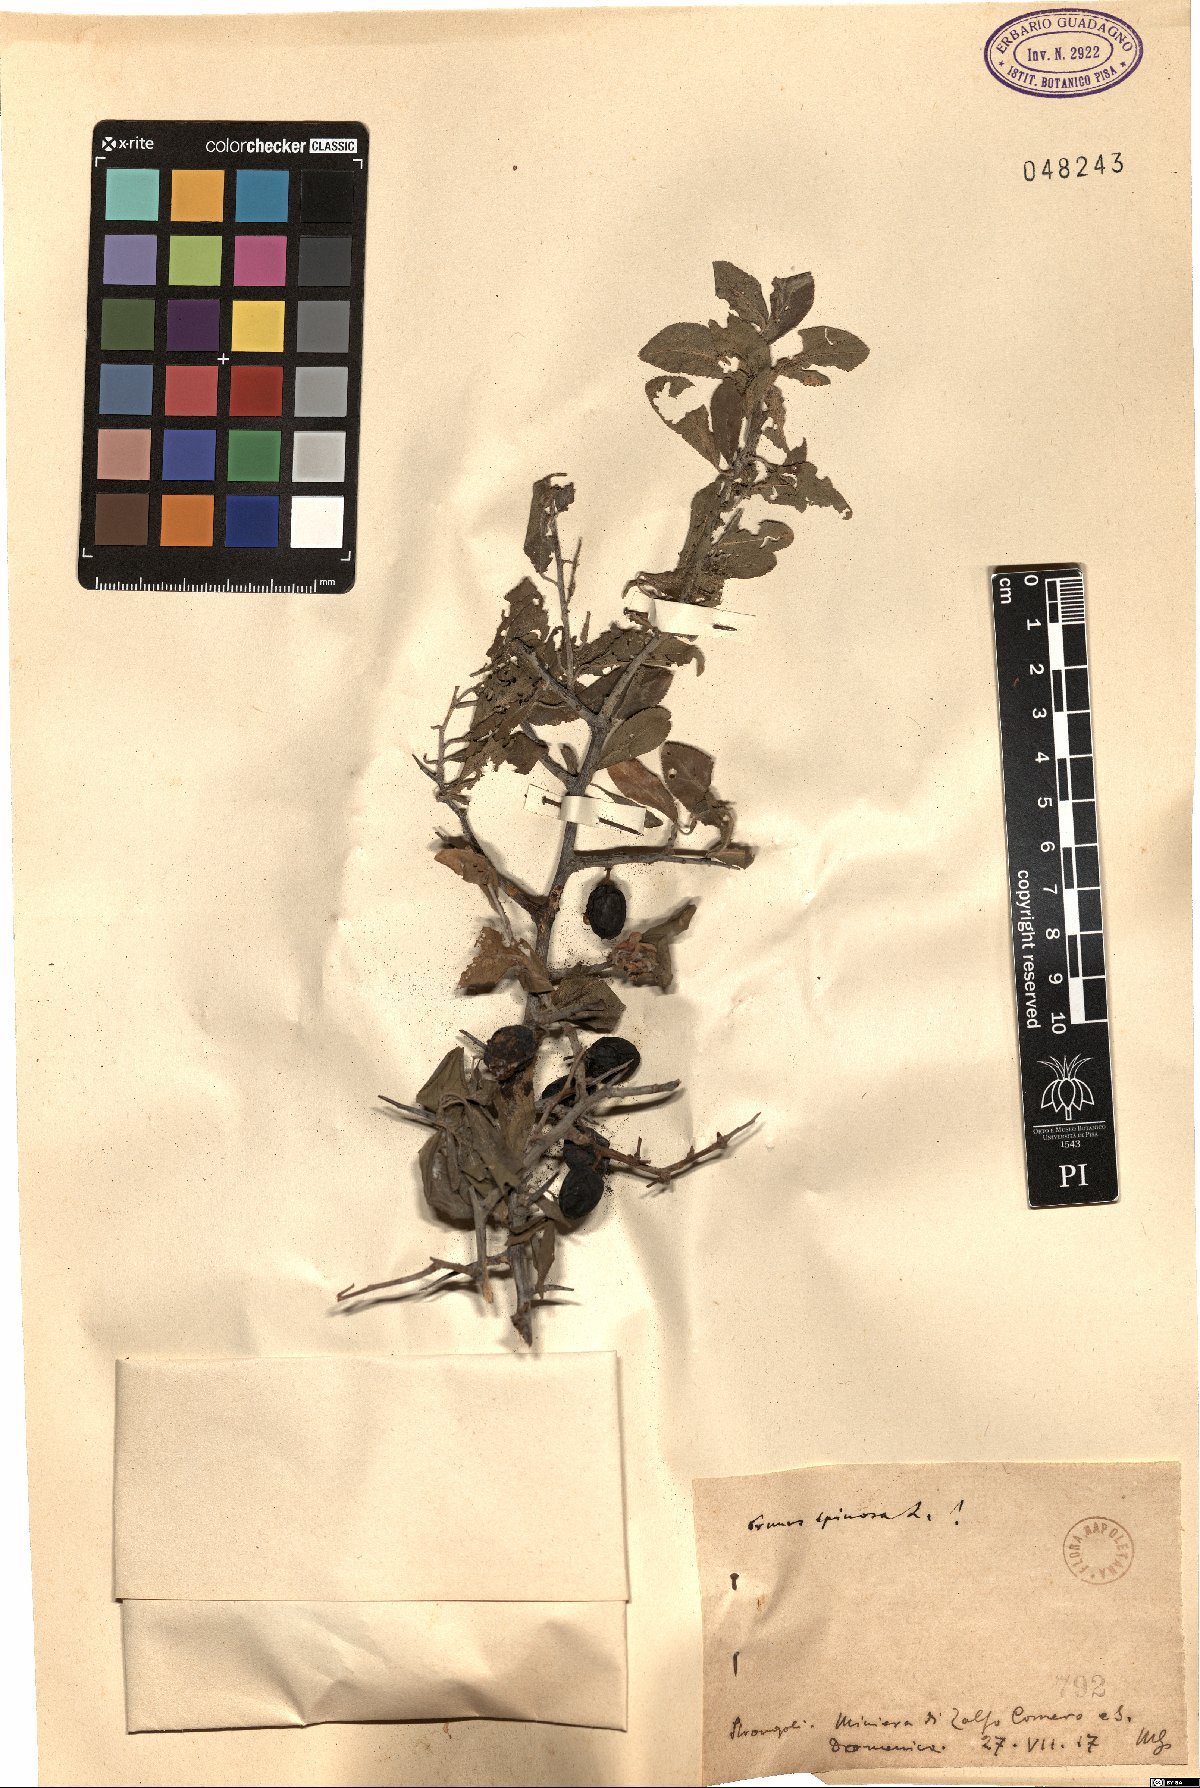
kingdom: Plantae
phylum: Tracheophyta
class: Magnoliopsida
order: Rosales
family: Rosaceae
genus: Prunus
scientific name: Prunus spinosa
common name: Blackthorn
